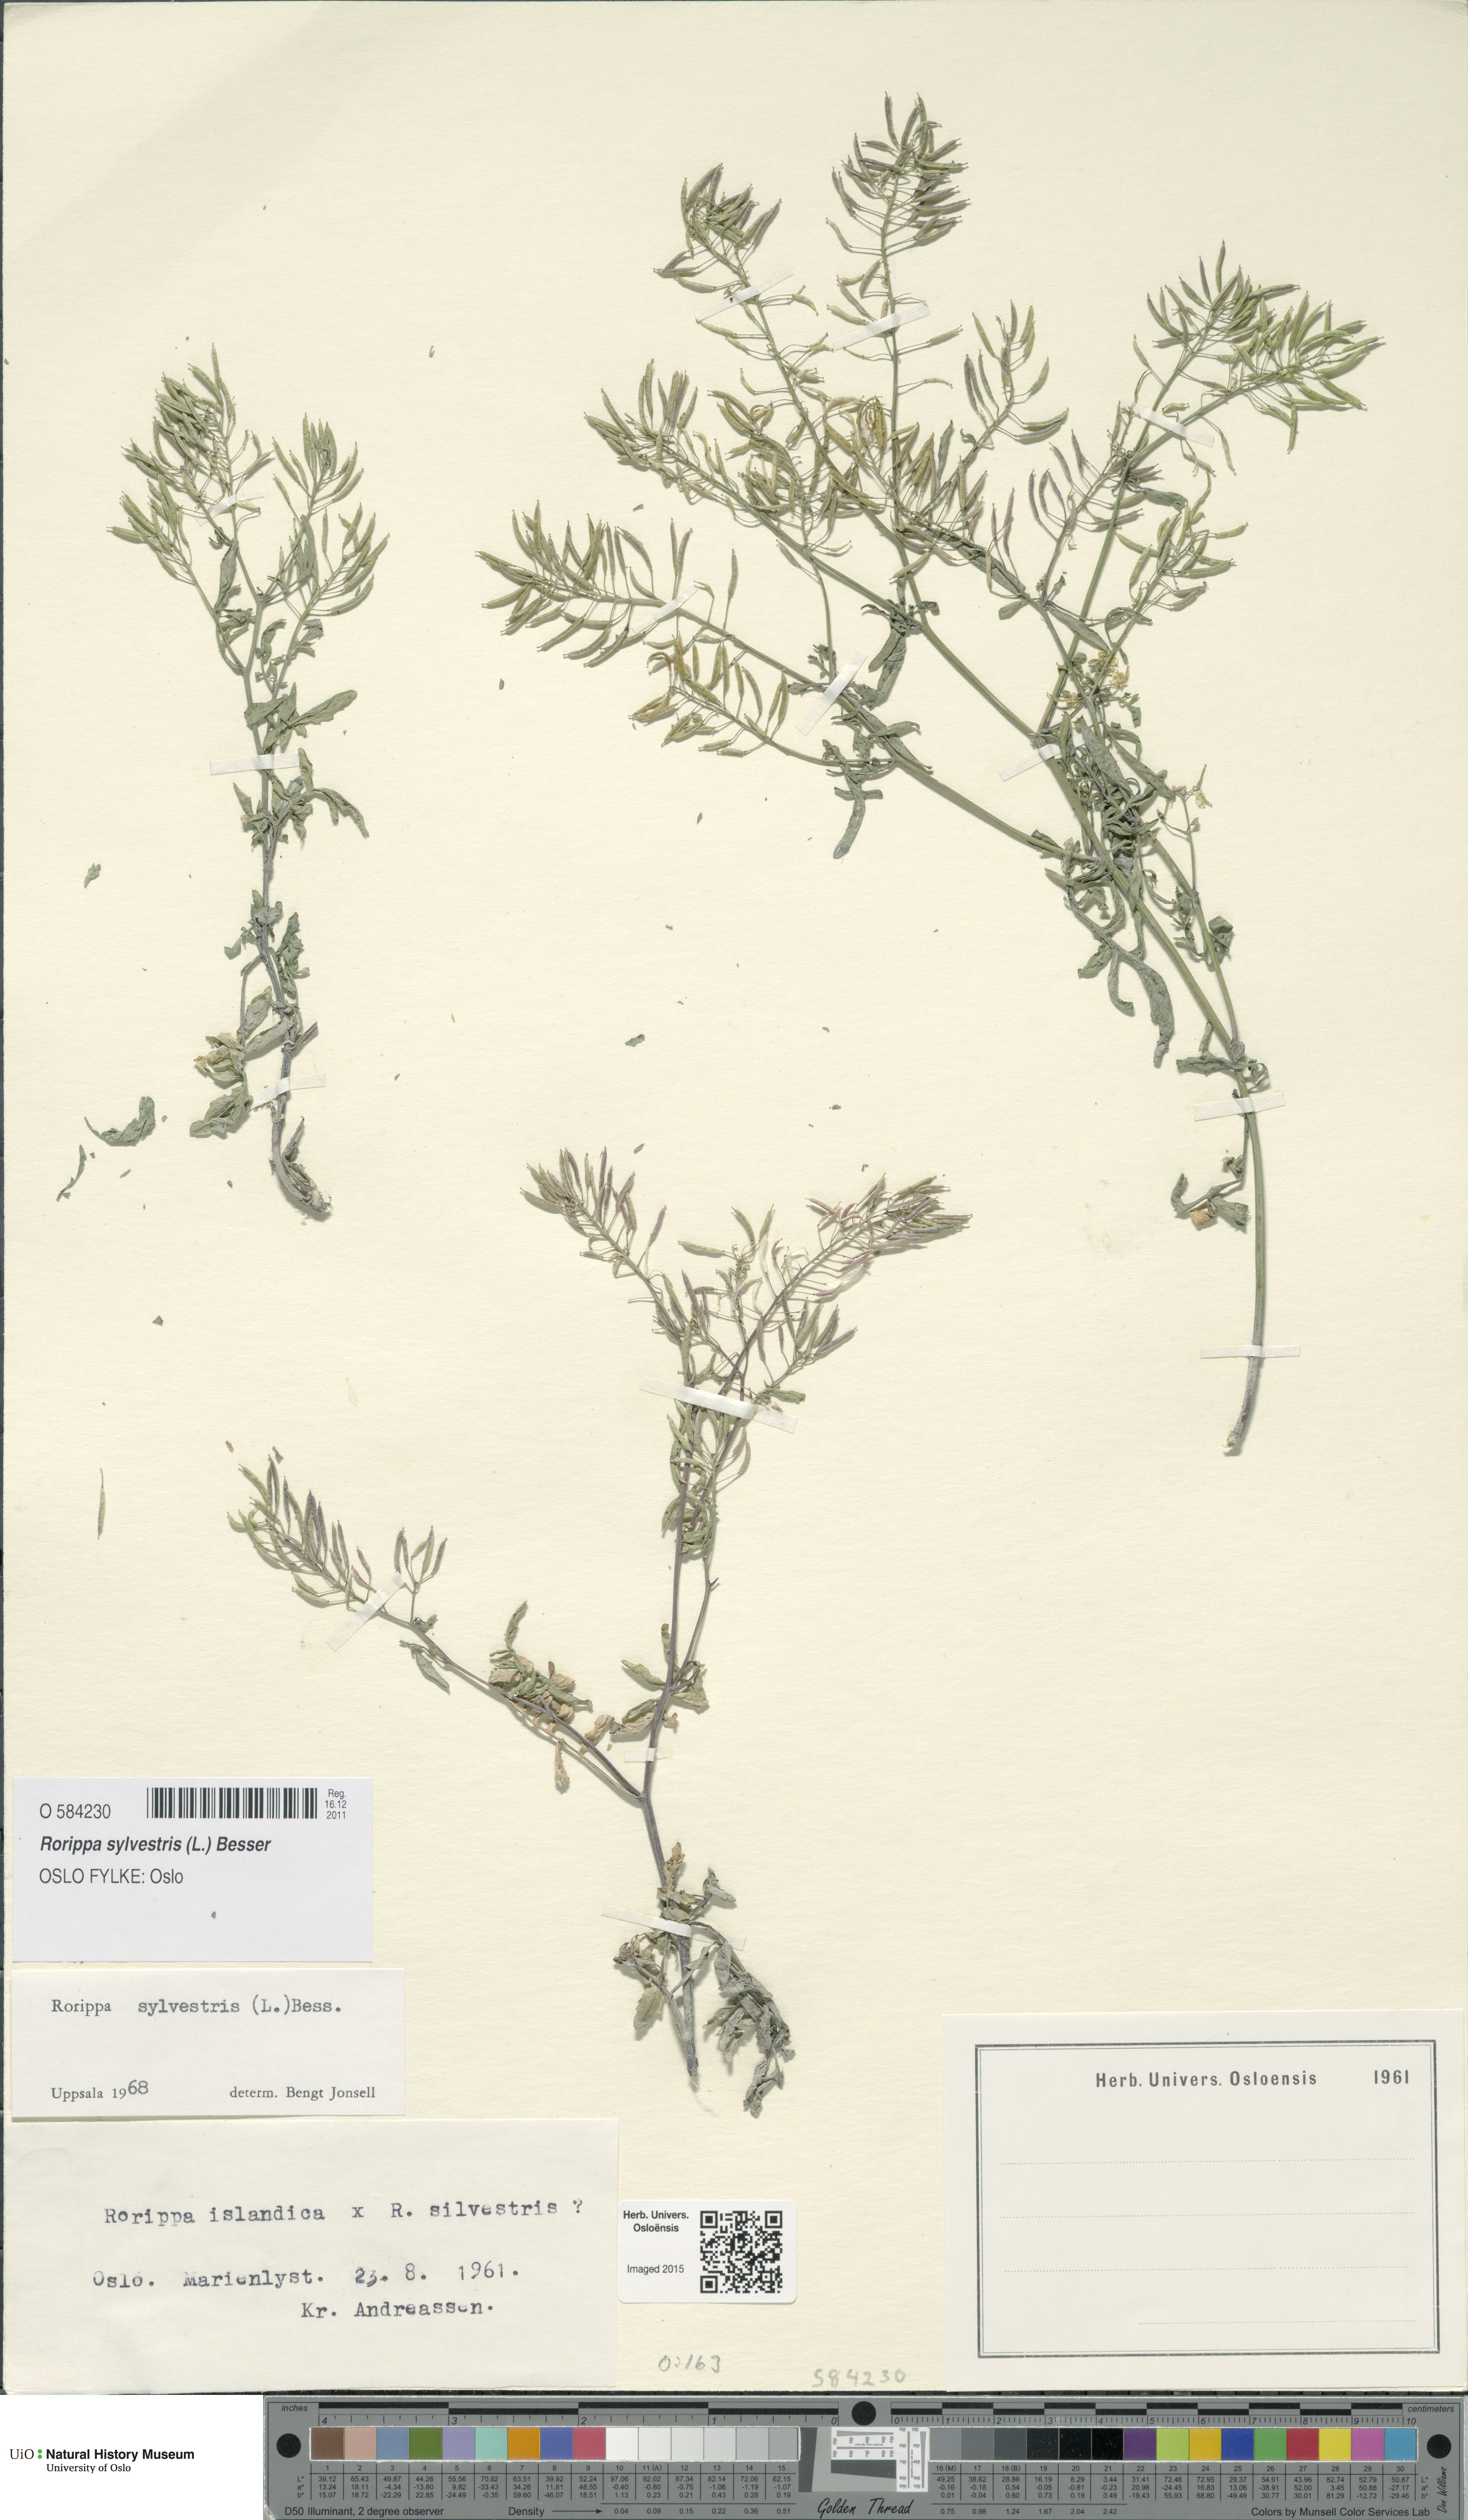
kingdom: Plantae
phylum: Tracheophyta
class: Magnoliopsida
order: Brassicales
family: Brassicaceae
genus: Rorippa
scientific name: Rorippa sylvestris
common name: Creeping yellowcress
